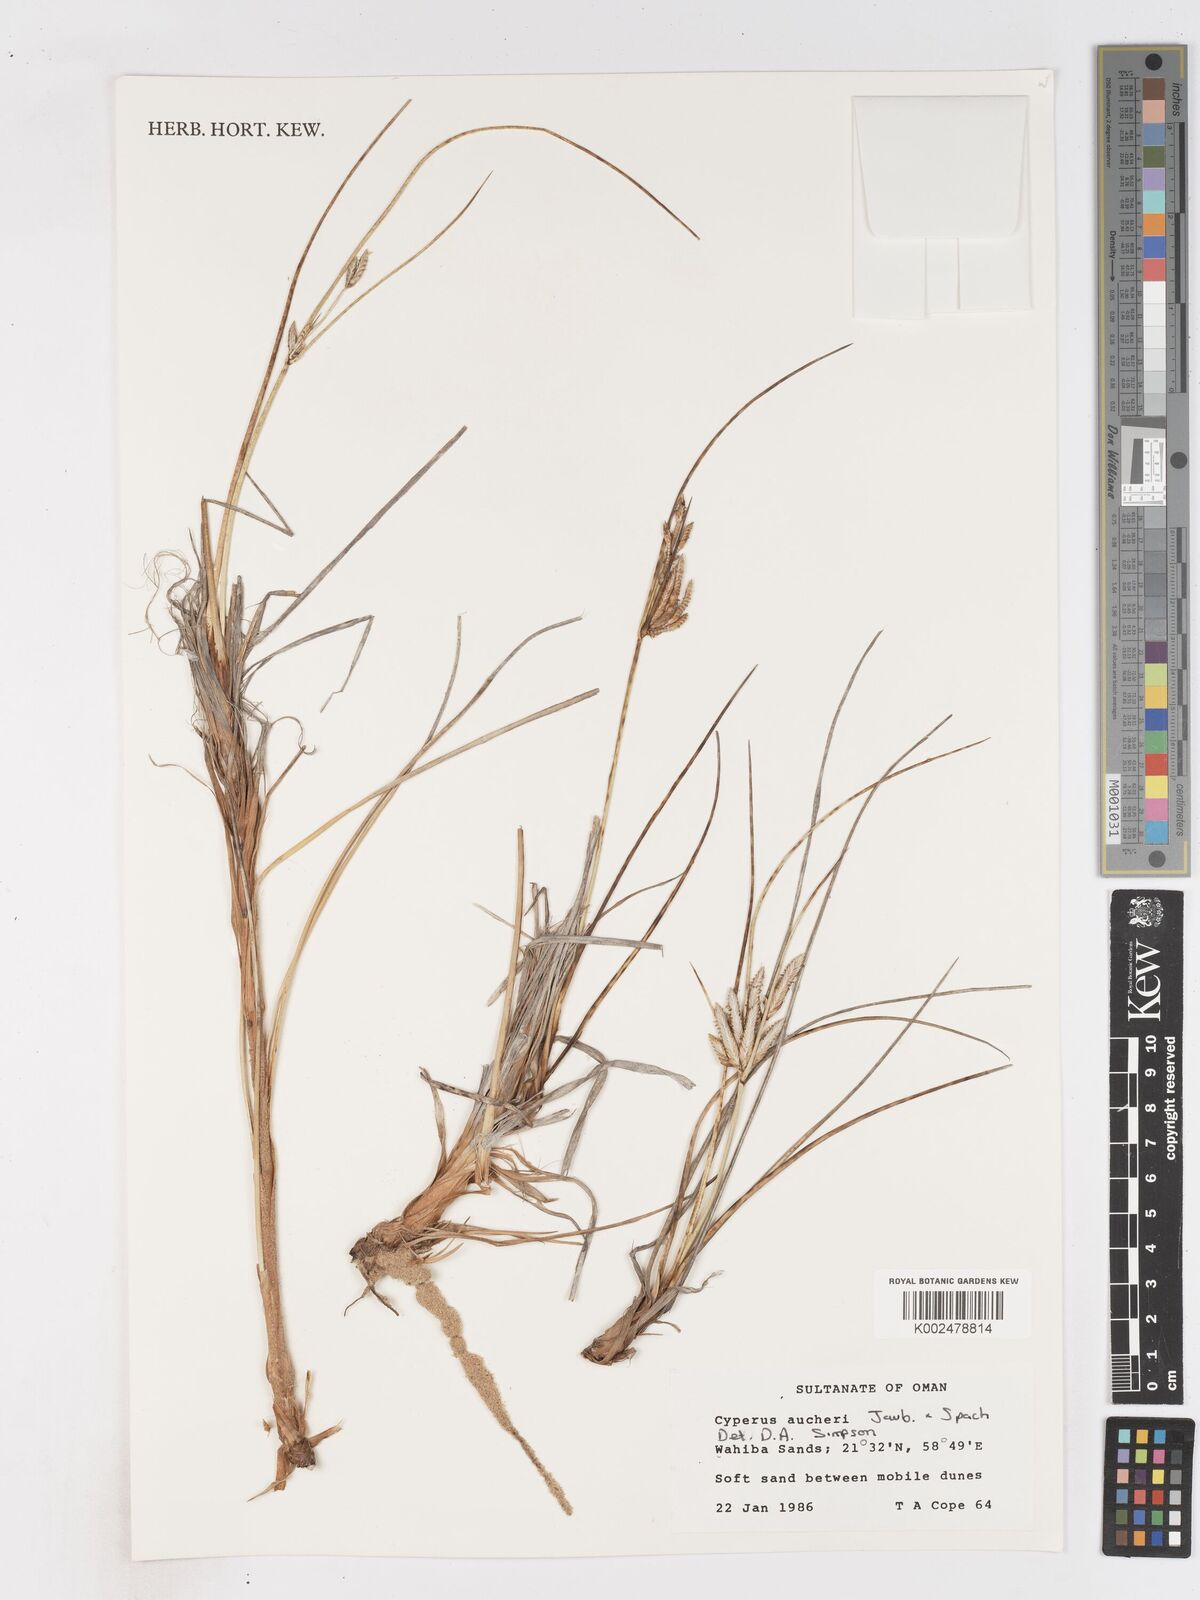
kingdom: Plantae
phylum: Tracheophyta
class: Liliopsida
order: Poales
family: Cyperaceae
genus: Cyperus
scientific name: Cyperus aucheri
